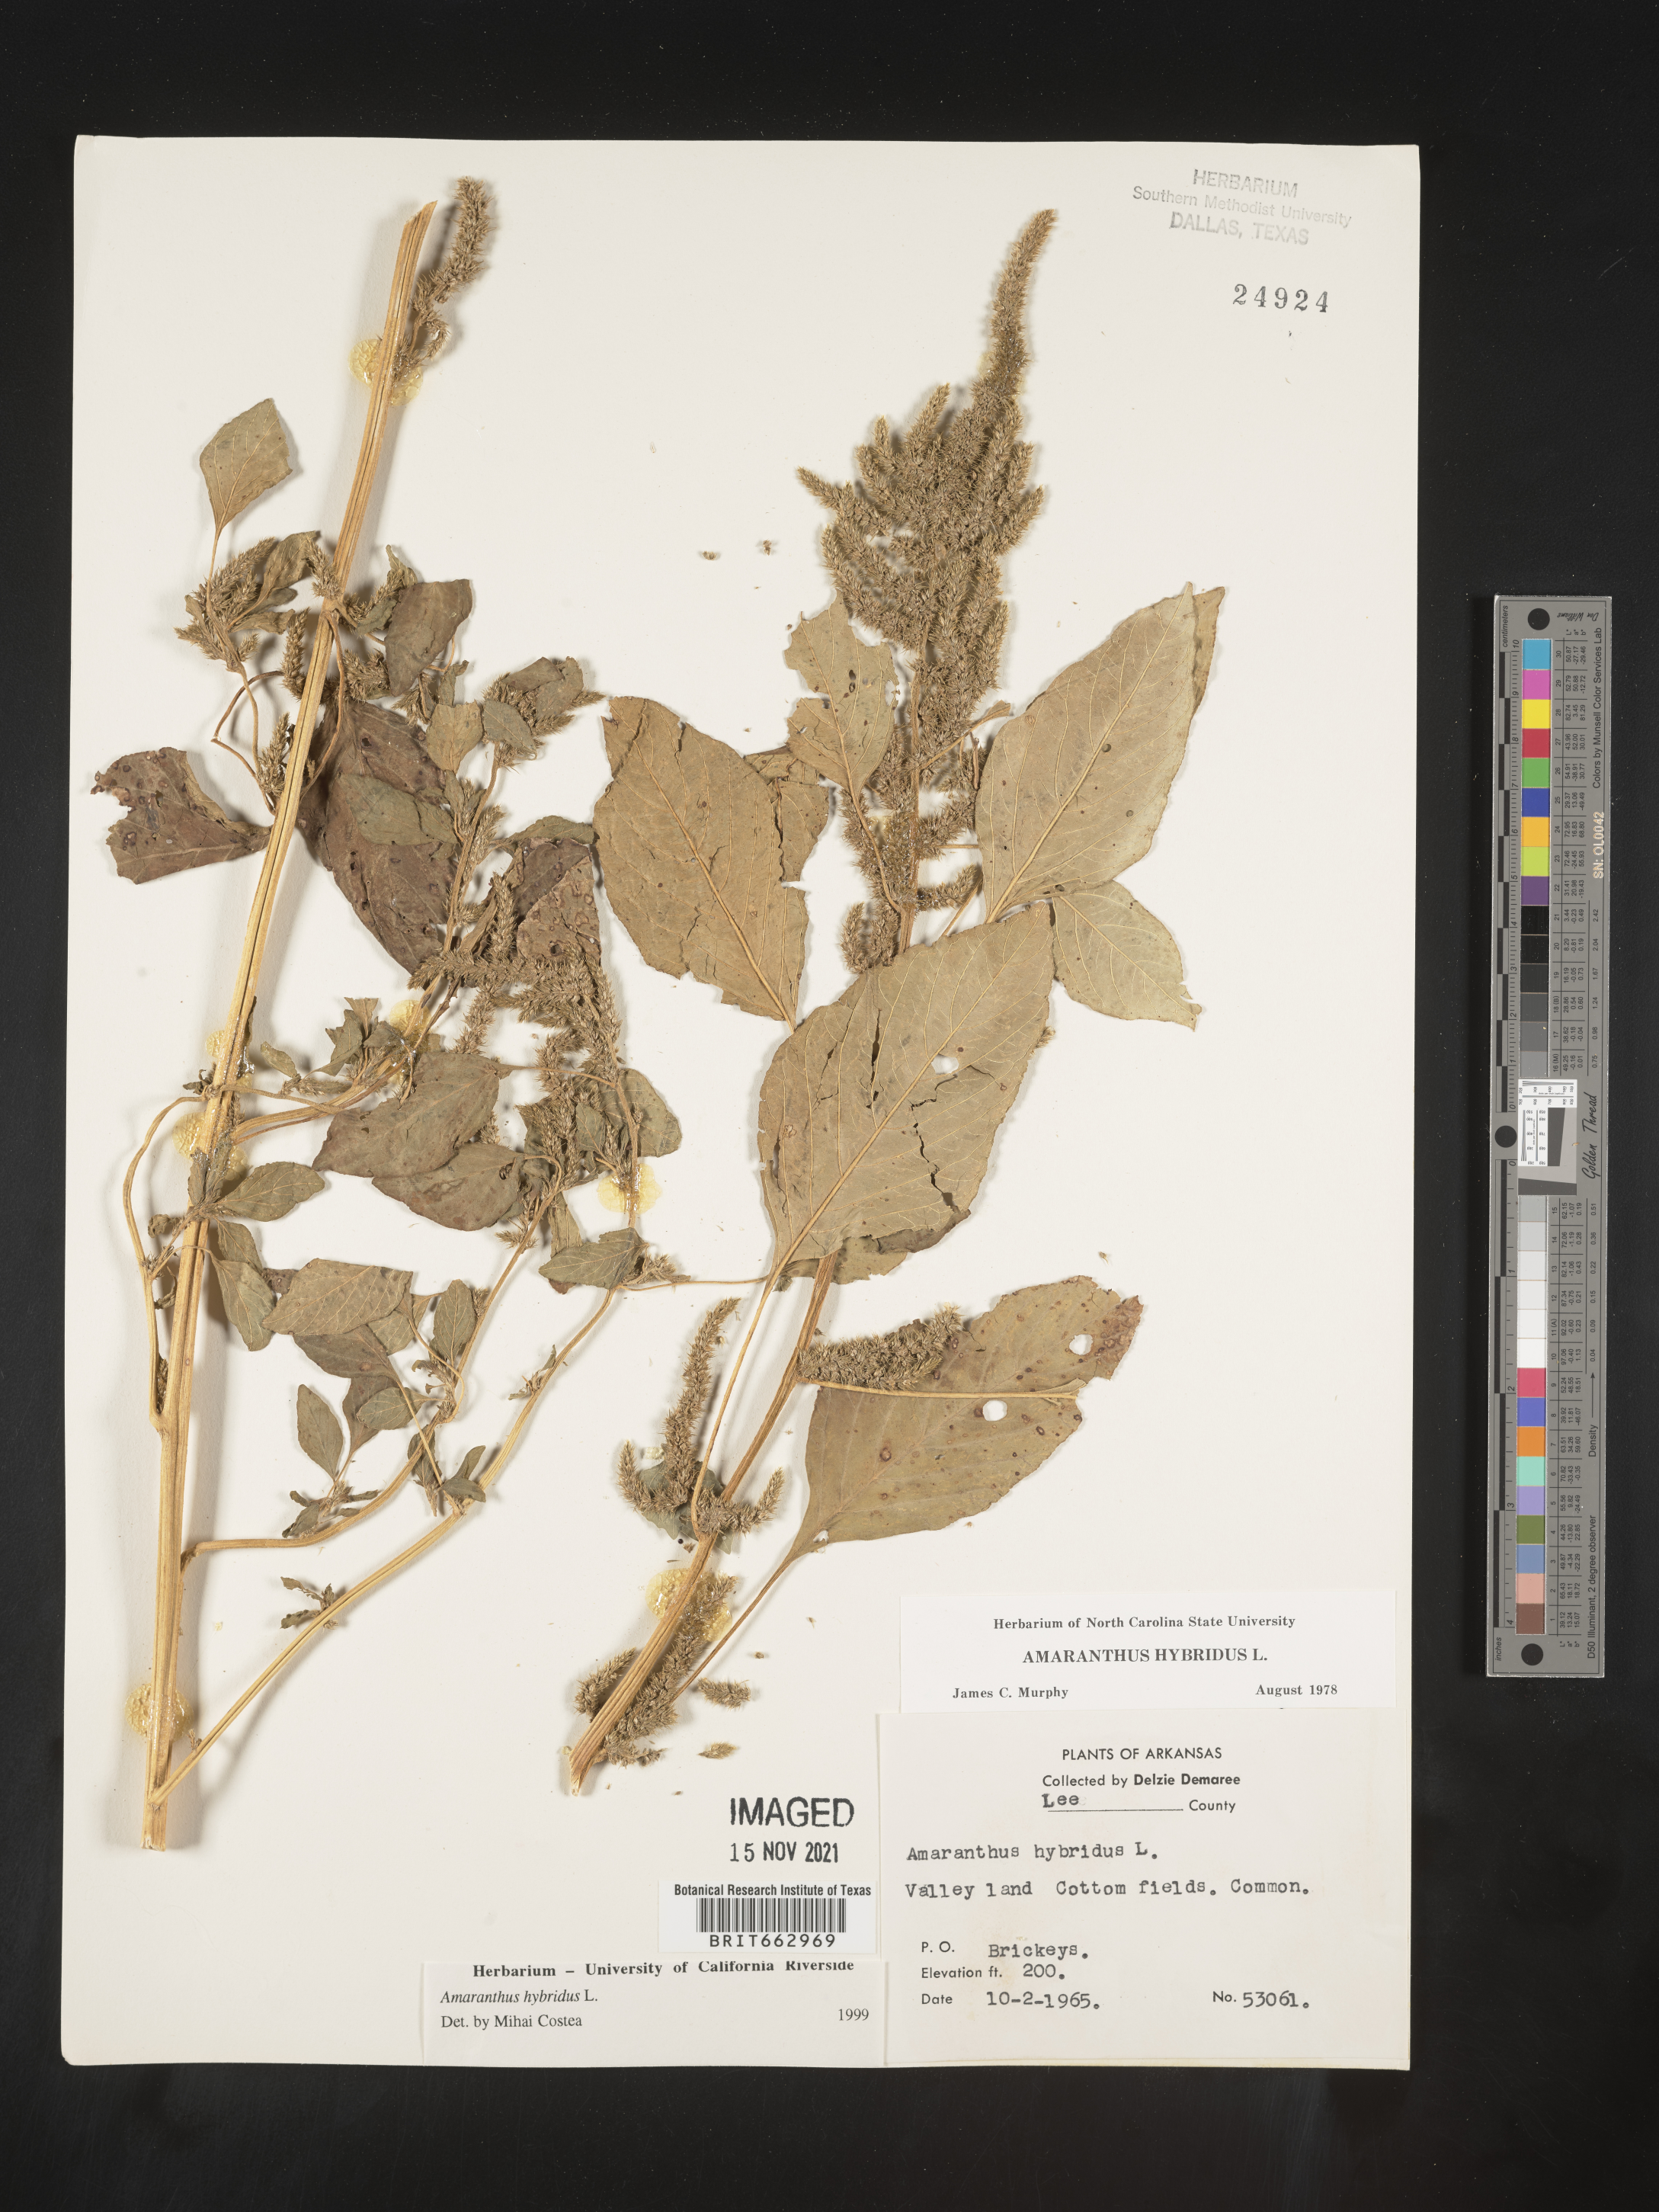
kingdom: Plantae
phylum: Tracheophyta
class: Magnoliopsida
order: Caryophyllales
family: Amaranthaceae
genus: Amaranthus
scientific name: Amaranthus hybridus
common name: Green amaranth
